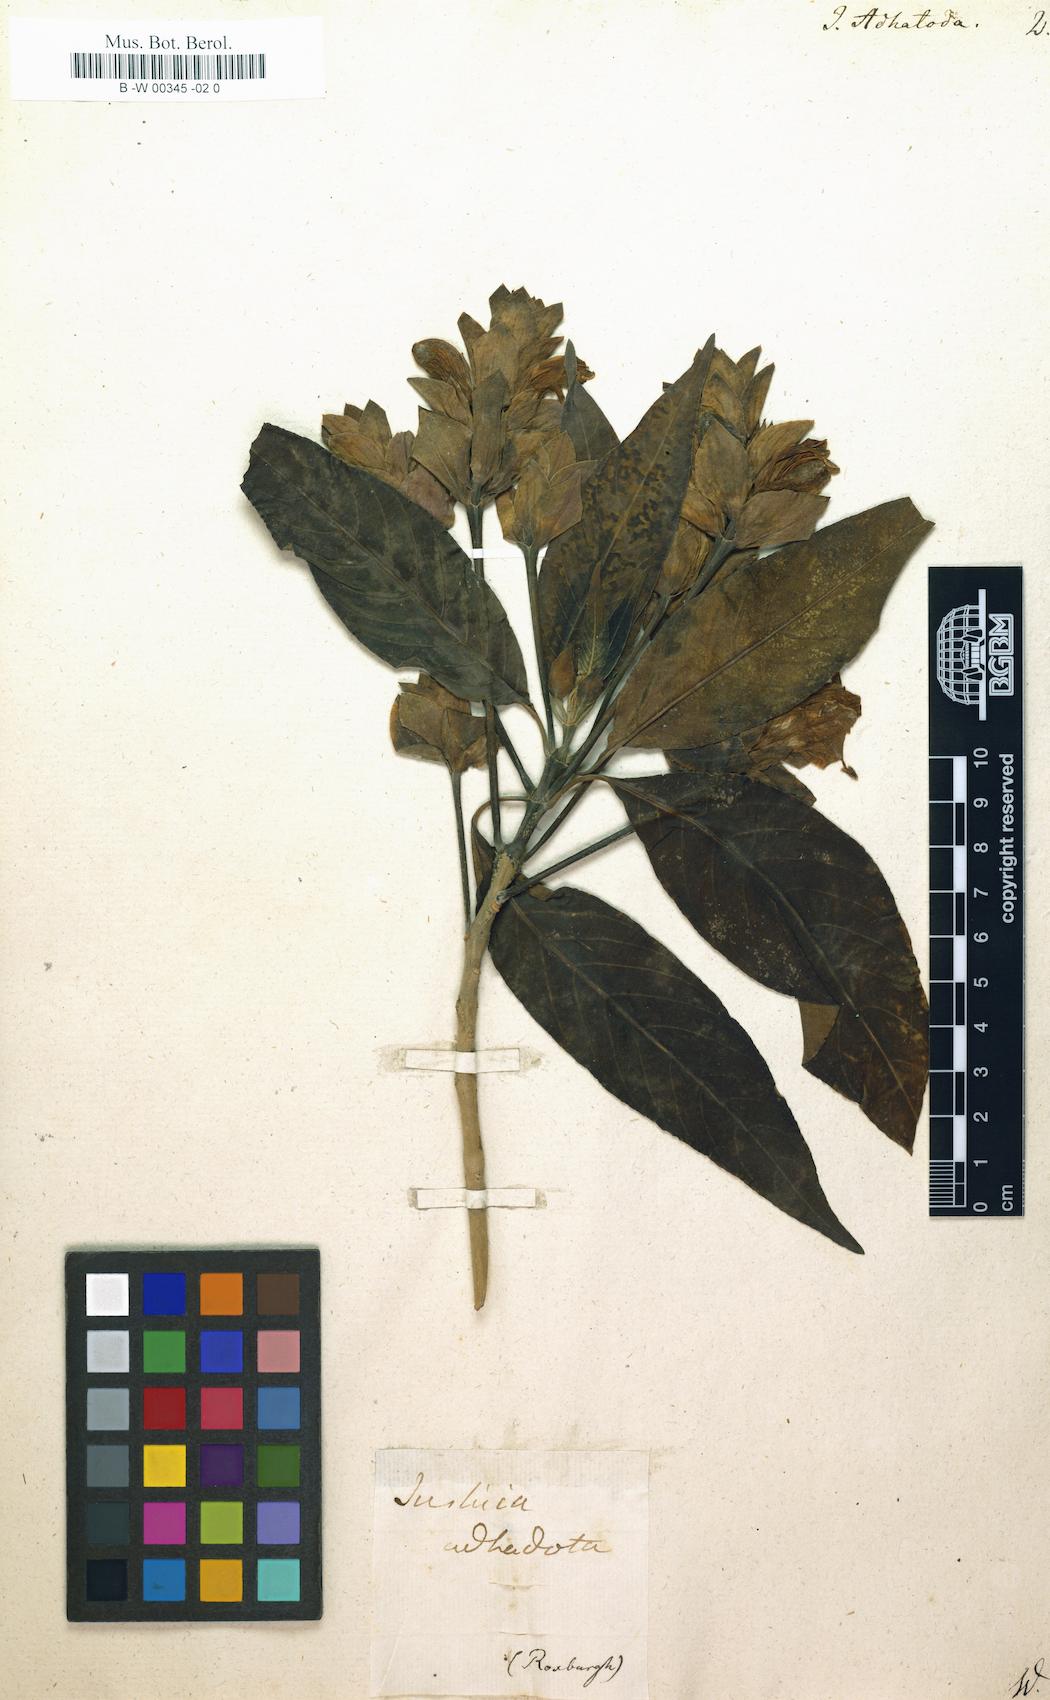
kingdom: Plantae
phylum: Tracheophyta
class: Magnoliopsida
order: Lamiales
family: Acanthaceae
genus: Justicia
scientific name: Justicia adhatoda
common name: Malabar nut
